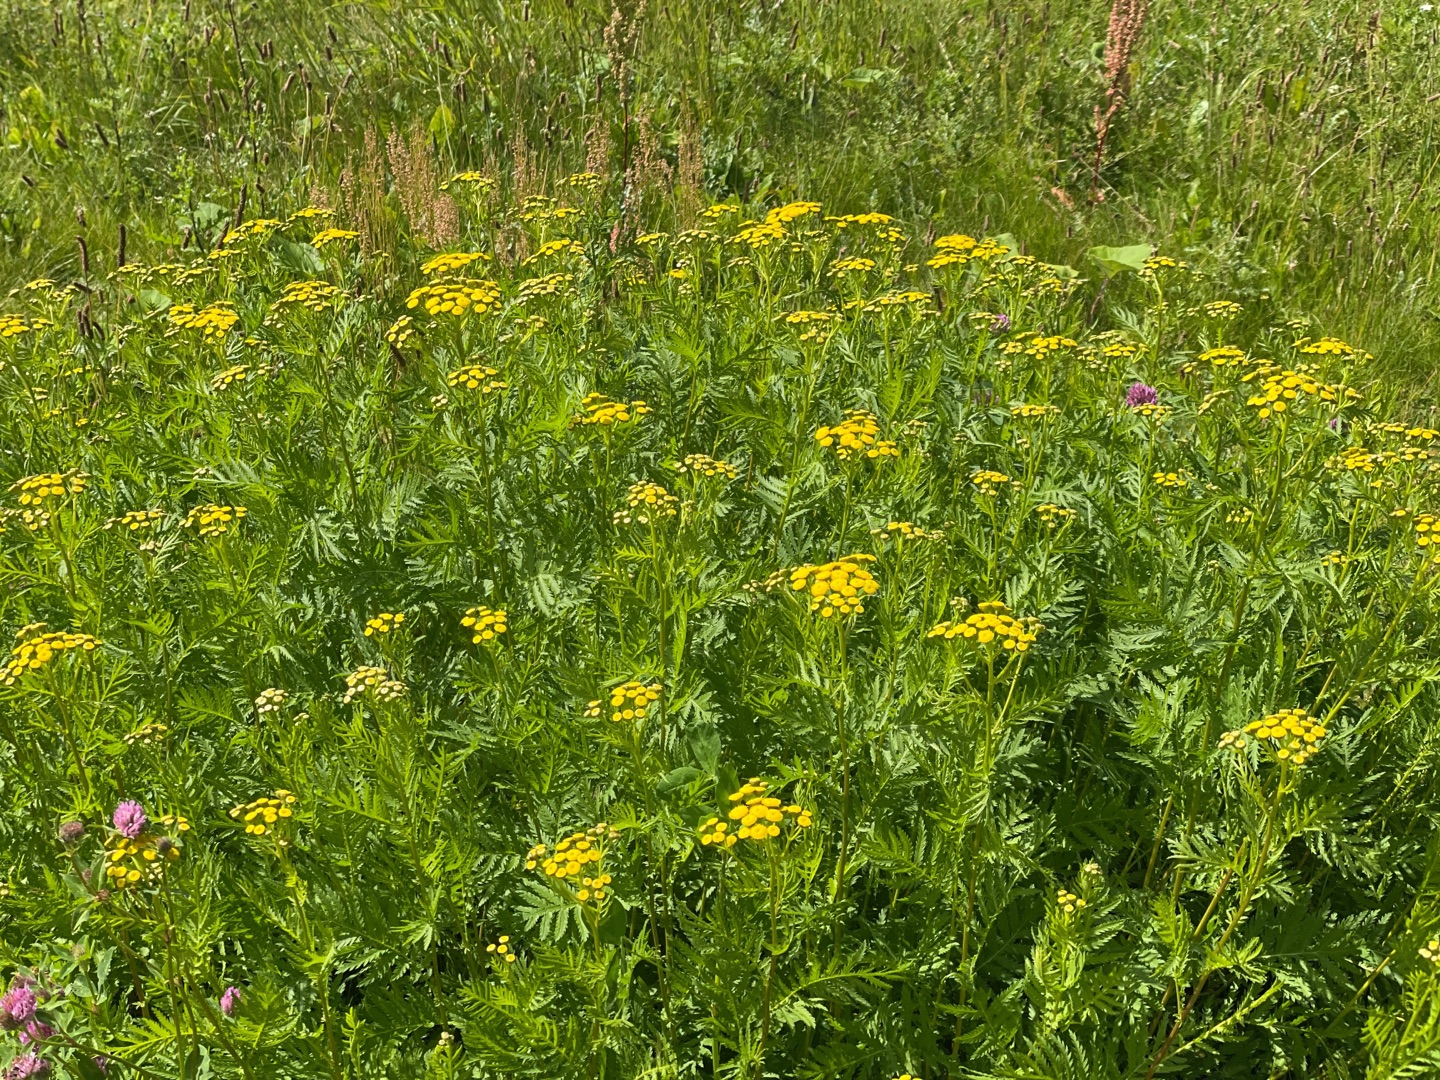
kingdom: Plantae
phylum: Tracheophyta
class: Magnoliopsida
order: Asterales
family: Asteraceae
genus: Tanacetum
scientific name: Tanacetum vulgare
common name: Rejnfan
